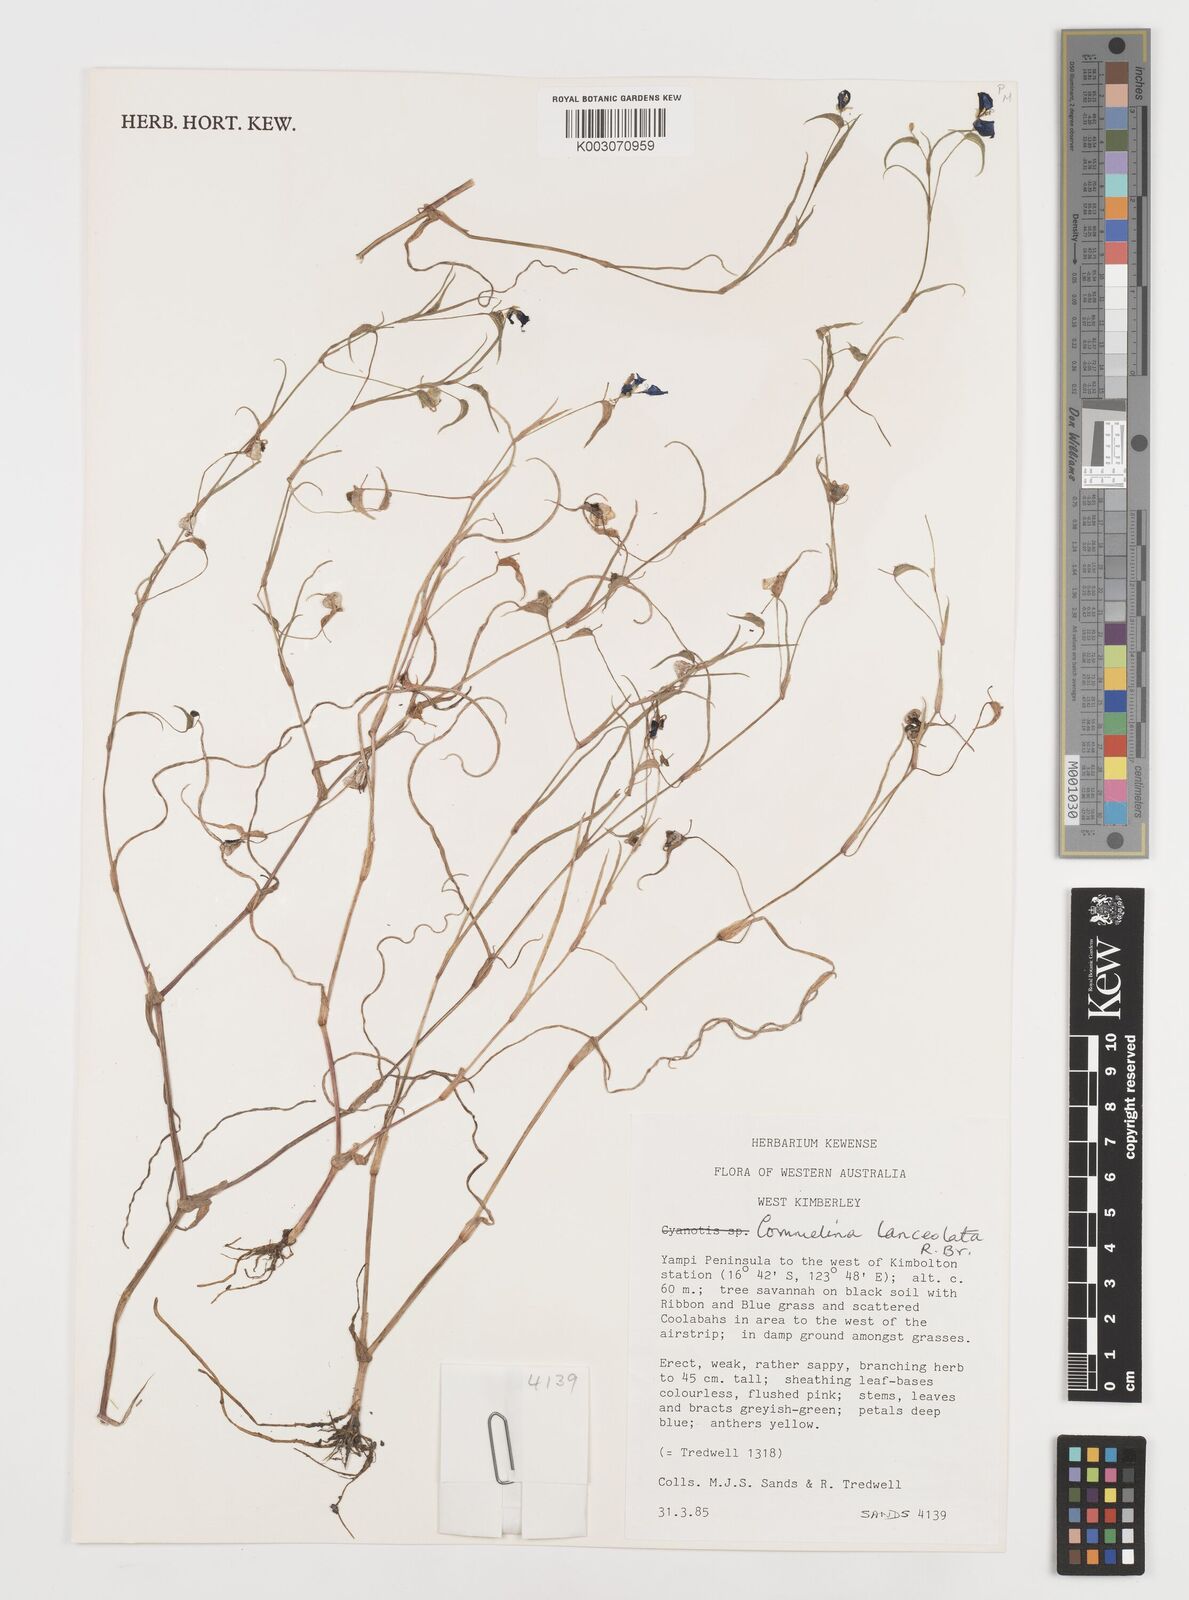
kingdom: Plantae
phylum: Tracheophyta
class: Liliopsida
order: Commelinales
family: Commelinaceae
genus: Commelina
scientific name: Commelina lanceolata
